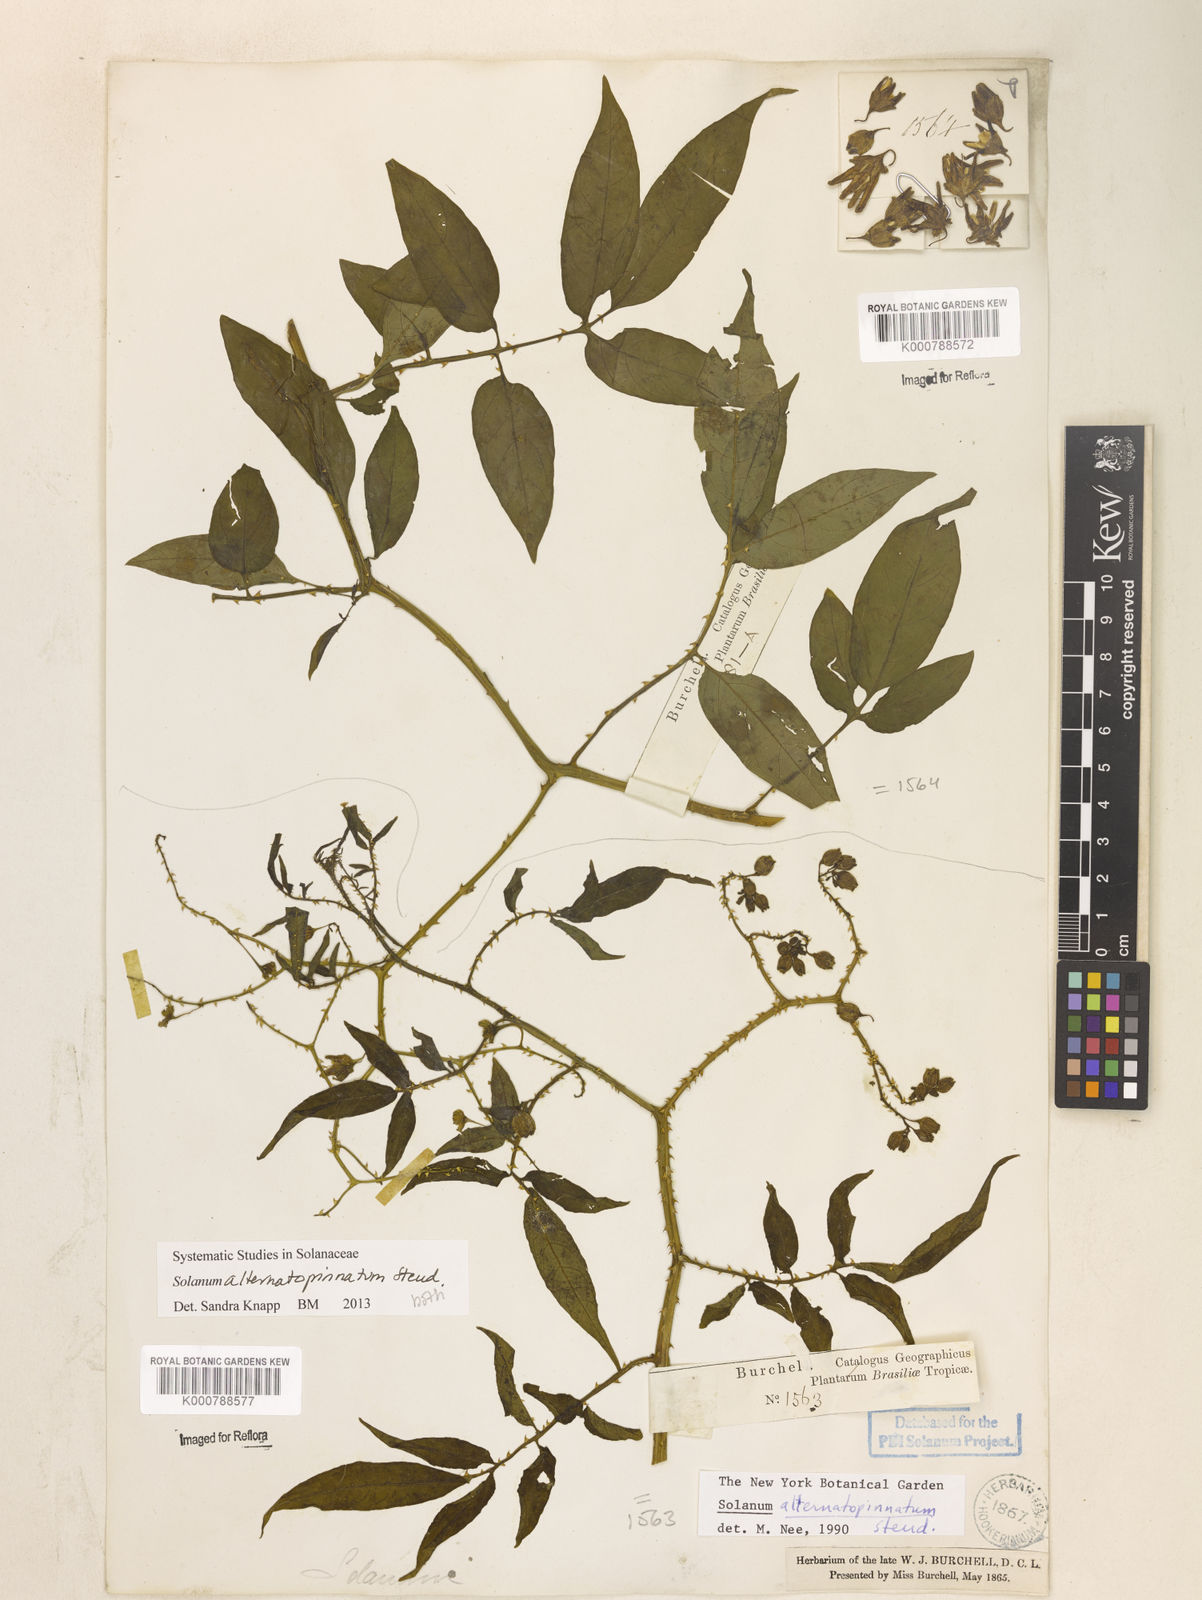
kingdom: Plantae
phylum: Tracheophyta
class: Magnoliopsida
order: Solanales
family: Solanaceae
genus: Solanum
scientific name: Solanum alternatopinnatum
